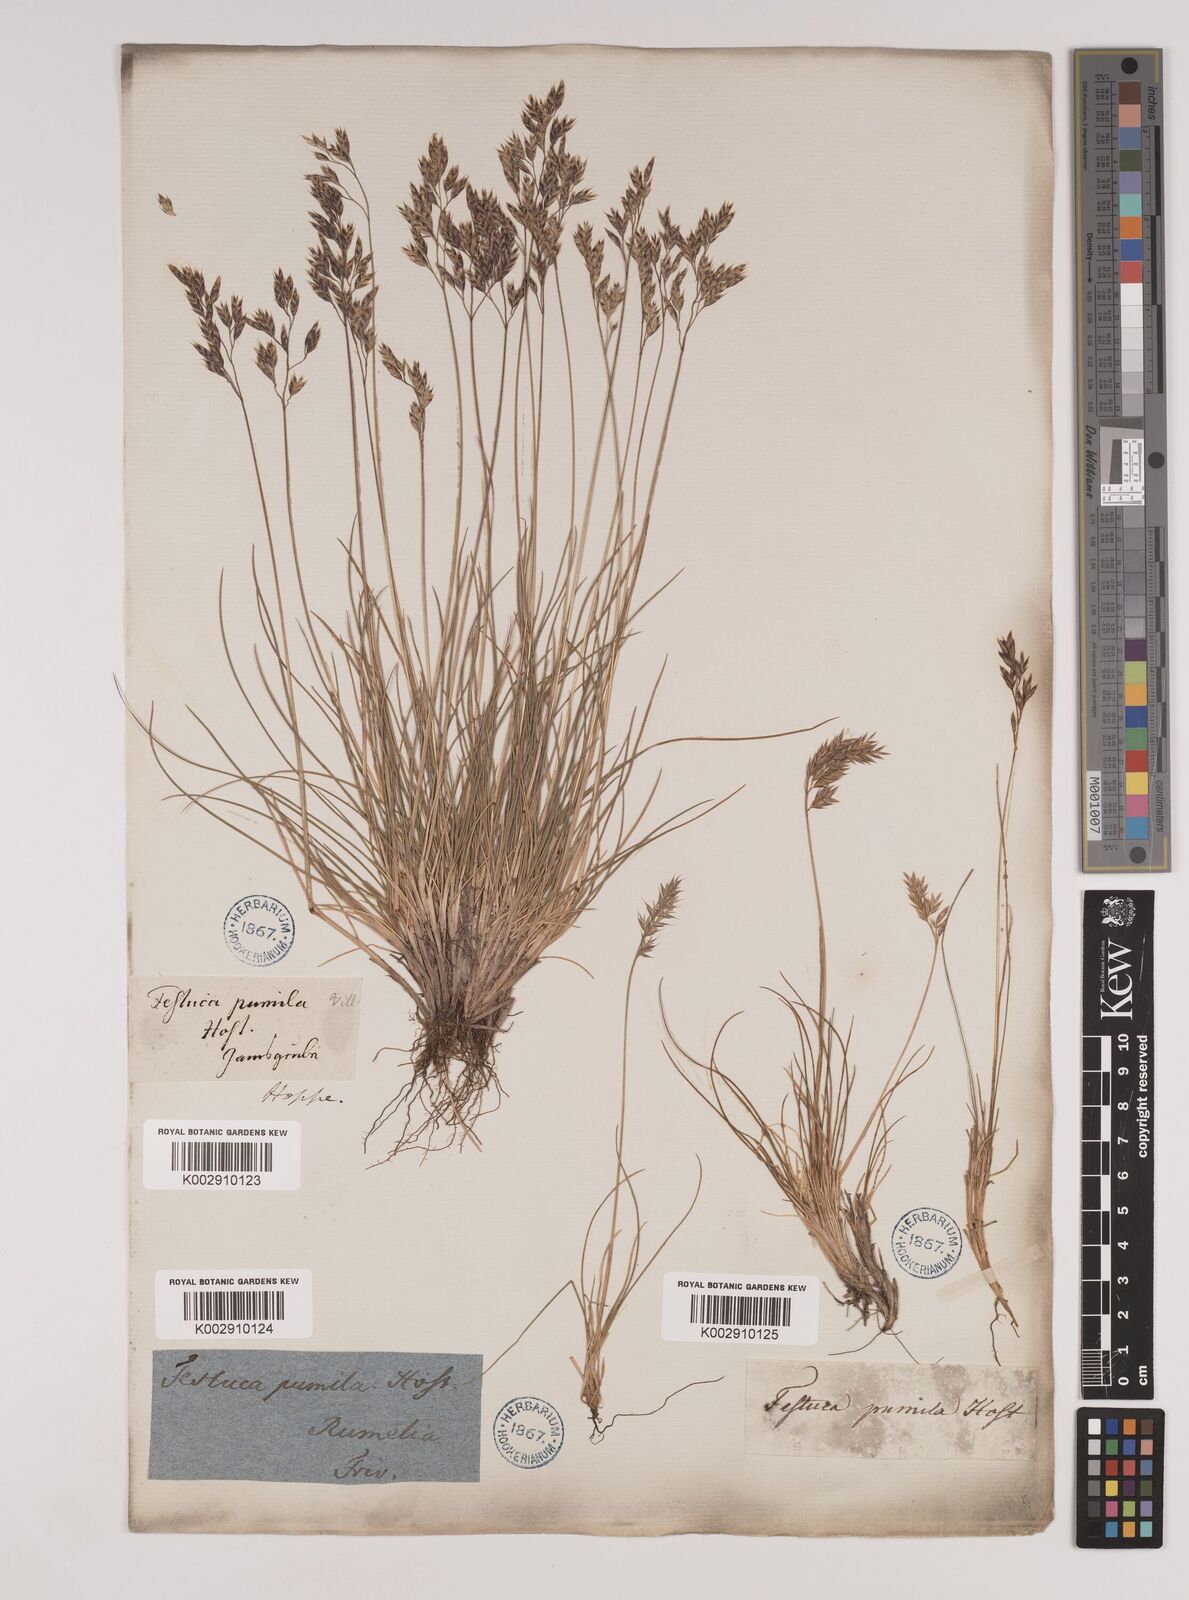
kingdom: Plantae
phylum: Tracheophyta
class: Liliopsida
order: Poales
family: Poaceae
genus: Festuca
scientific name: Festuca
